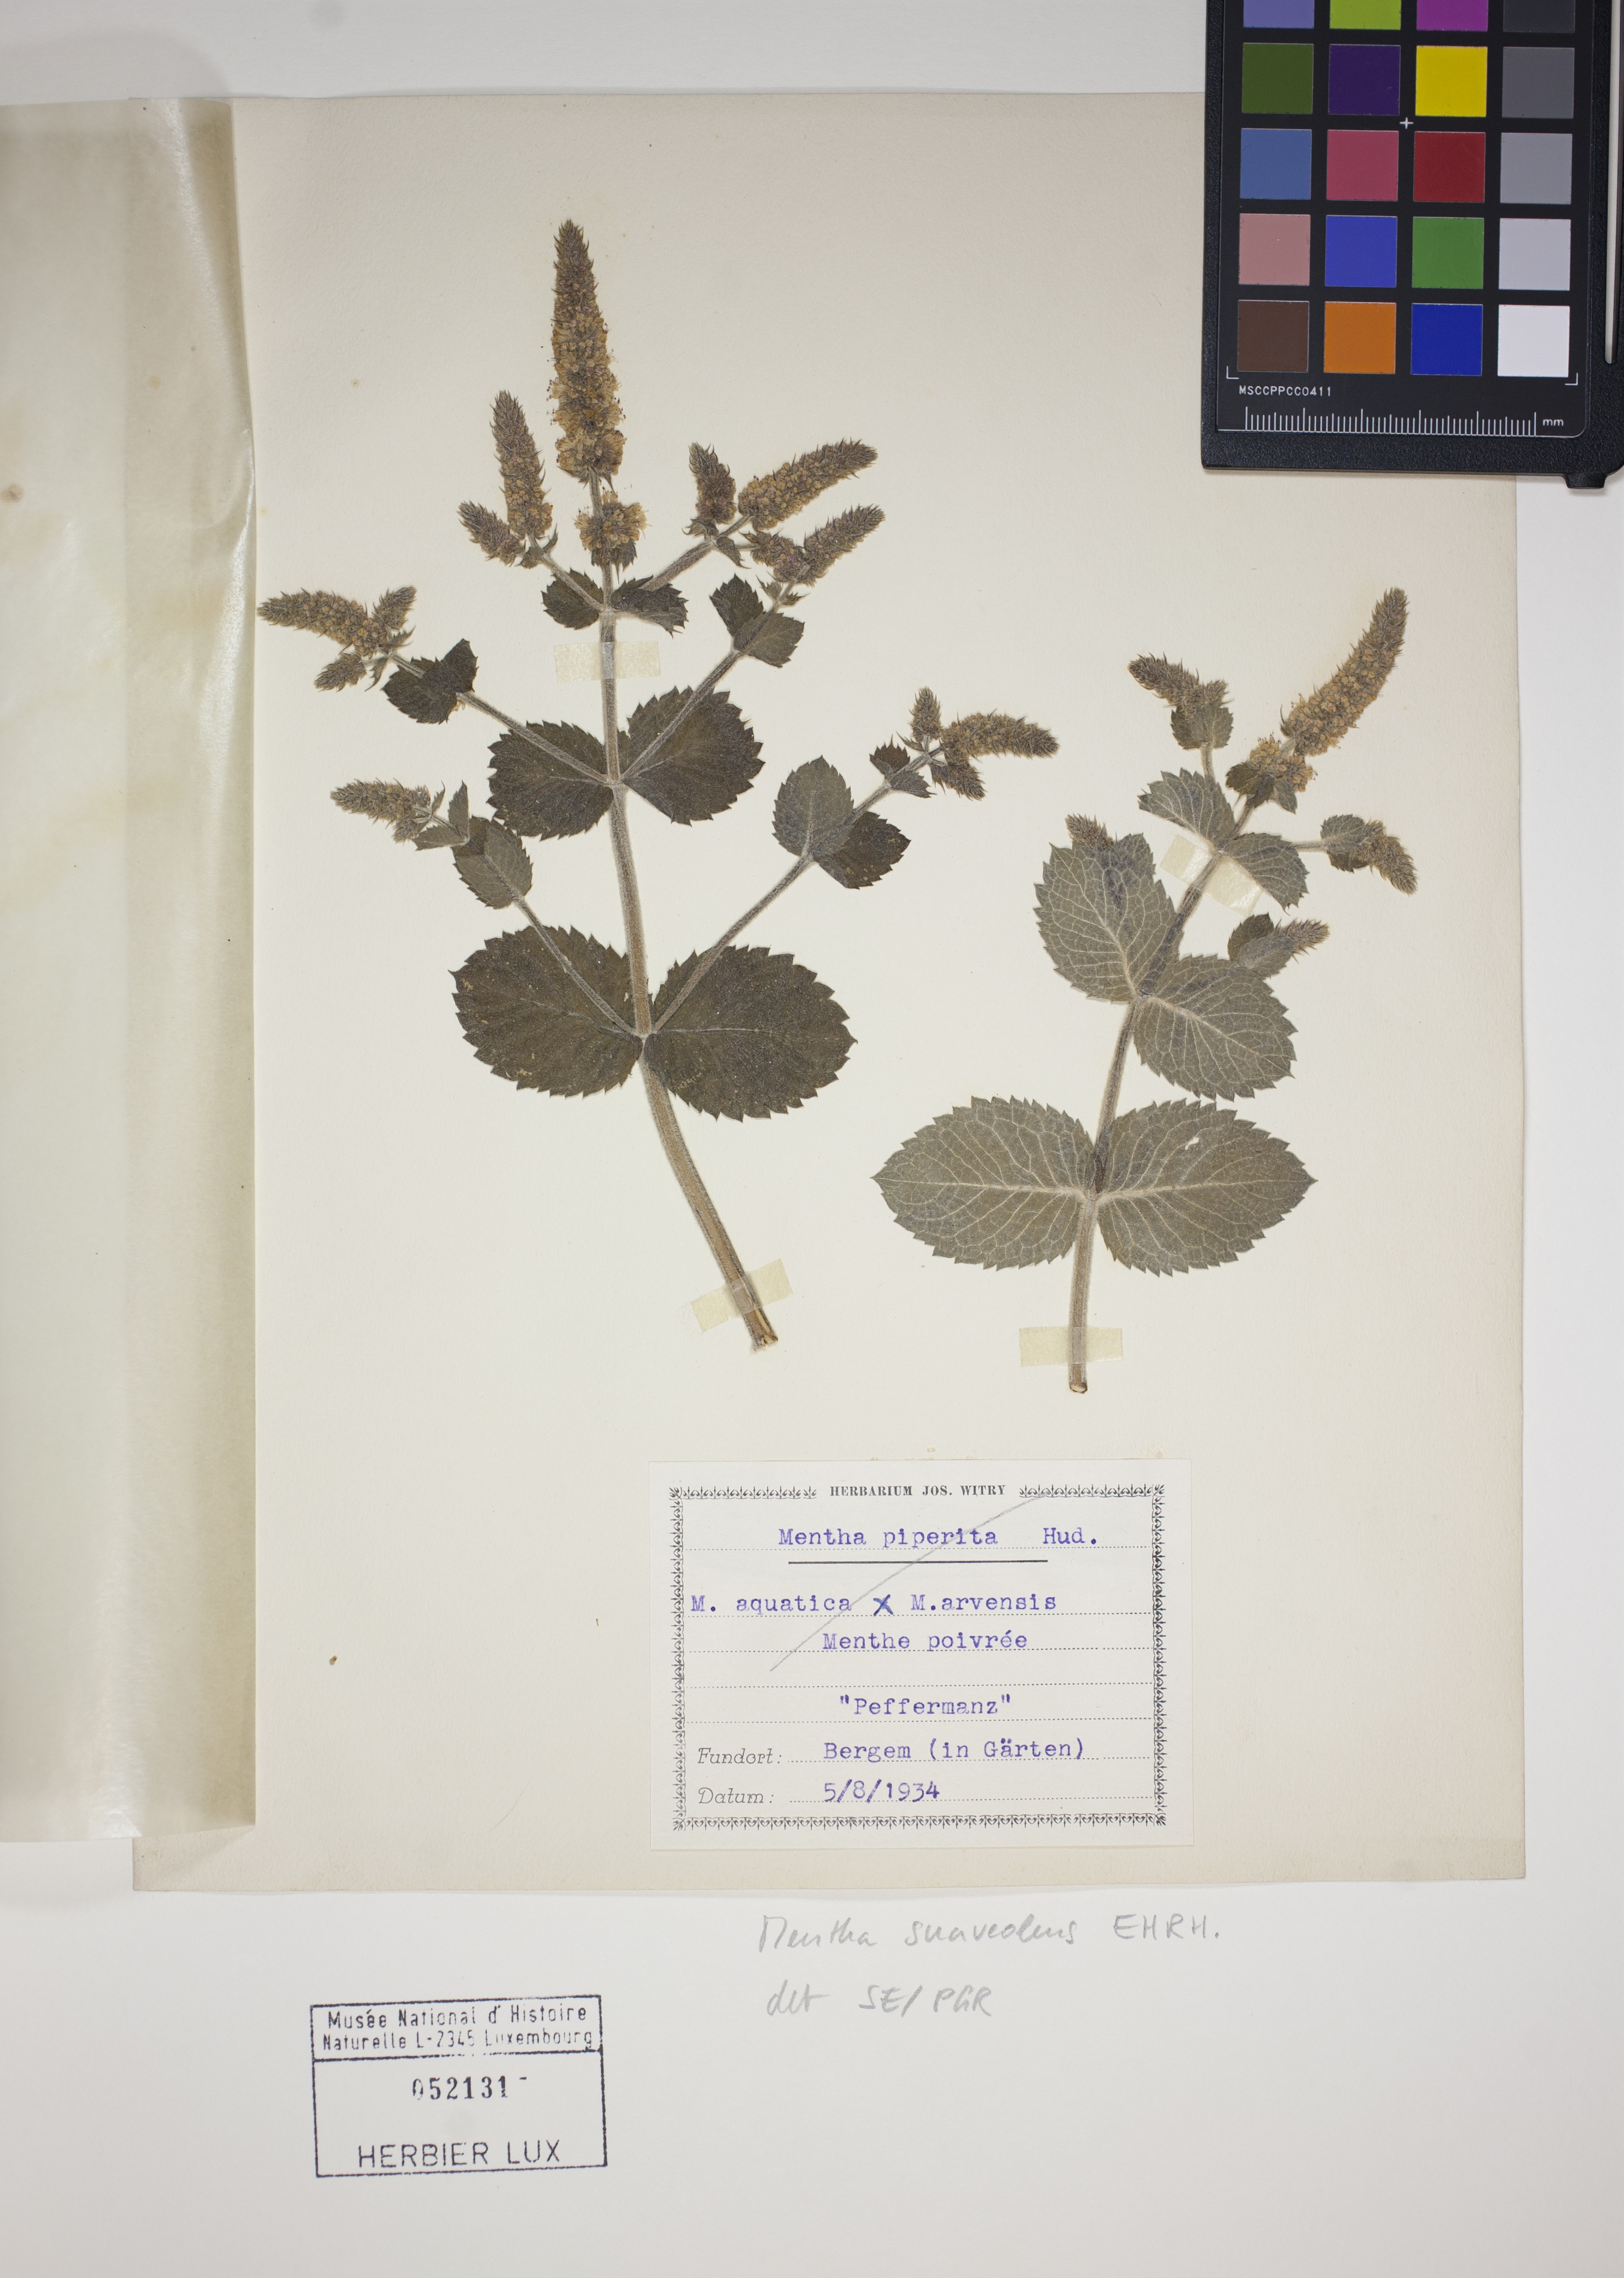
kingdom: Plantae
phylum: Tracheophyta
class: Magnoliopsida
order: Lamiales
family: Lamiaceae
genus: Mentha
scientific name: Mentha suaveolens
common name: Apple mint
